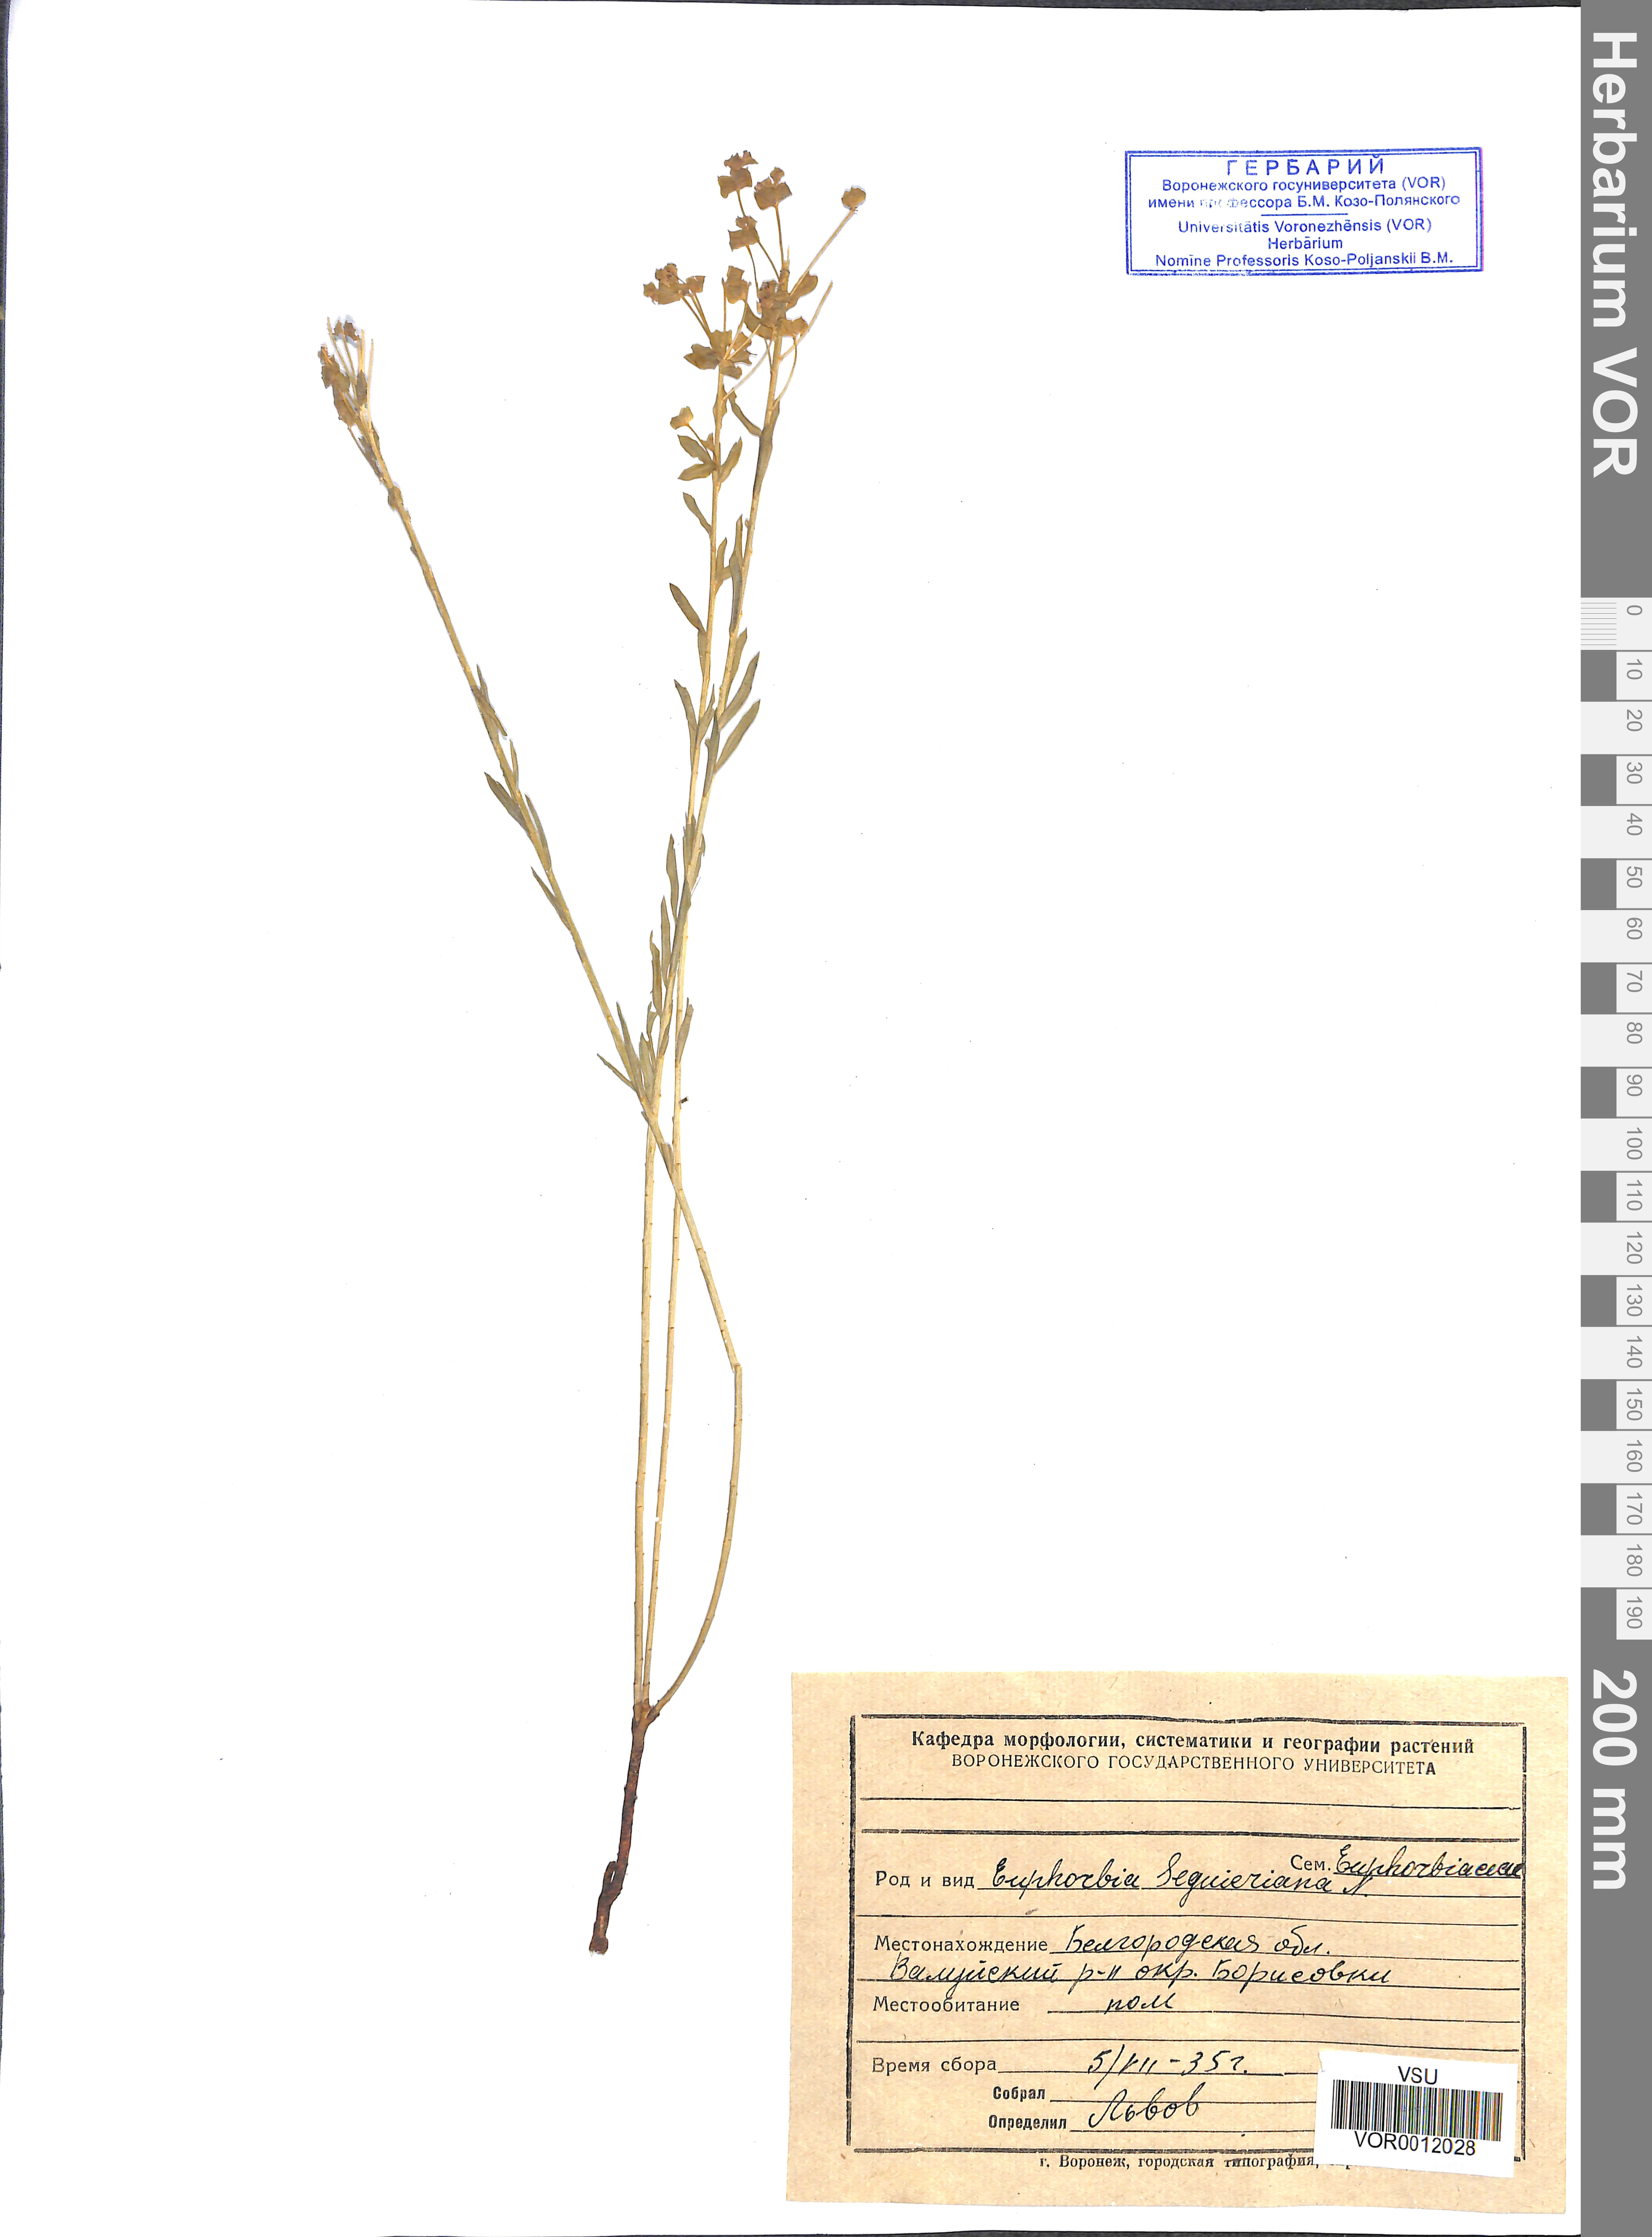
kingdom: Plantae
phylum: Tracheophyta
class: Magnoliopsida
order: Malpighiales
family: Euphorbiaceae
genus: Euphorbia
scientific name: Euphorbia seguieriana
